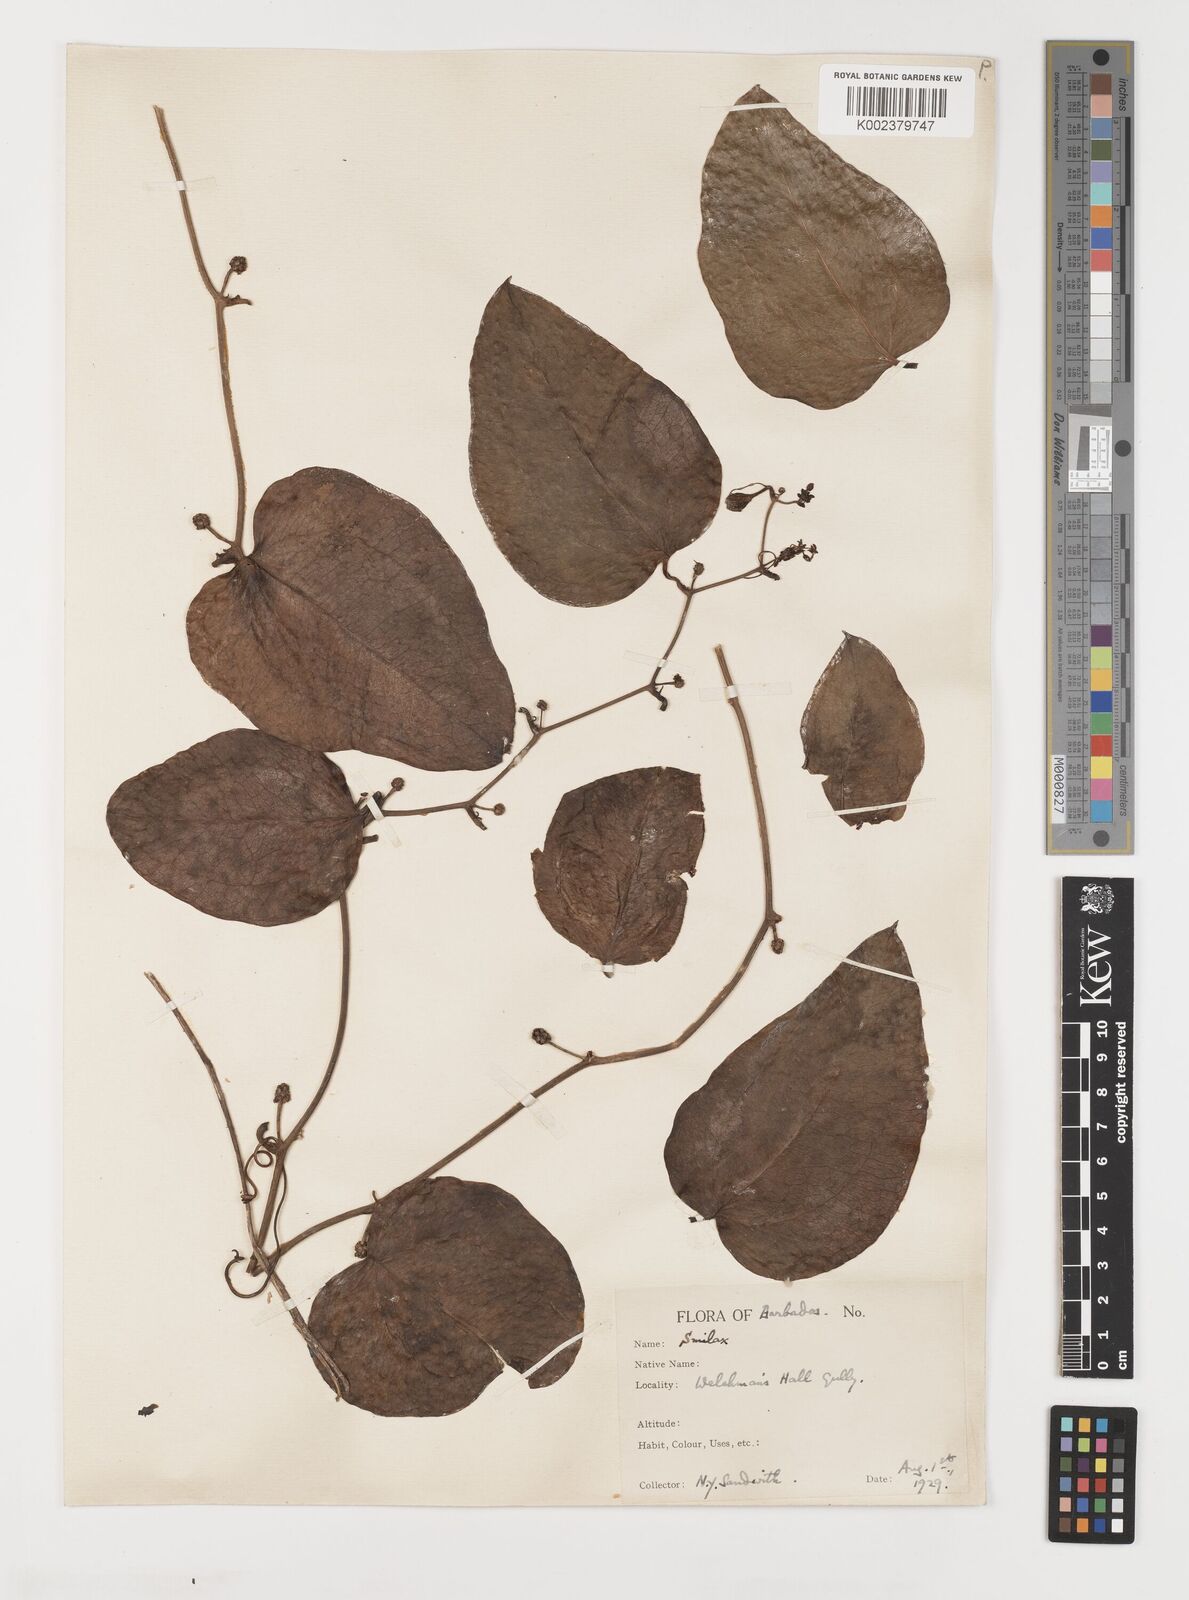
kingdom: Plantae
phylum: Tracheophyta
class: Liliopsida
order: Liliales
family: Smilacaceae
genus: Smilax
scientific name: Smilax guianensis
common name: Basket hoop
